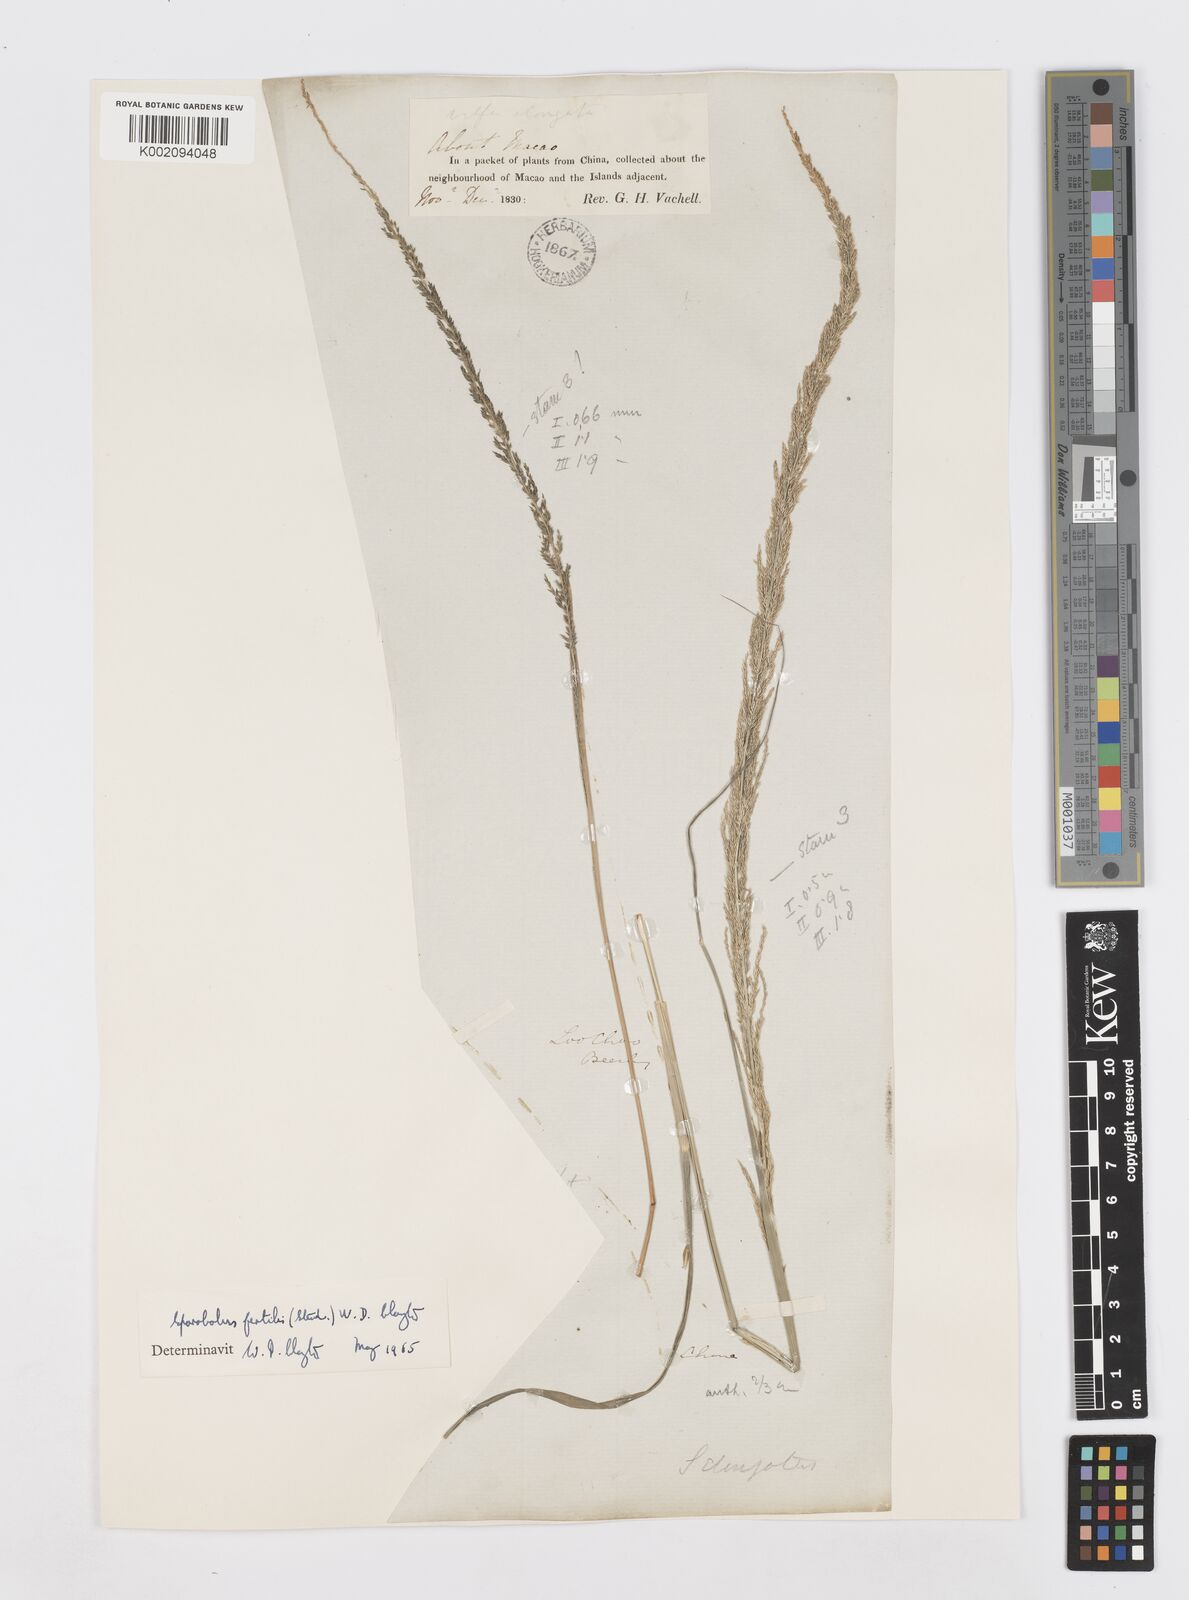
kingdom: Plantae
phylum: Tracheophyta
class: Liliopsida
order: Poales
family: Poaceae
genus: Sporobolus
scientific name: Sporobolus fertilis
